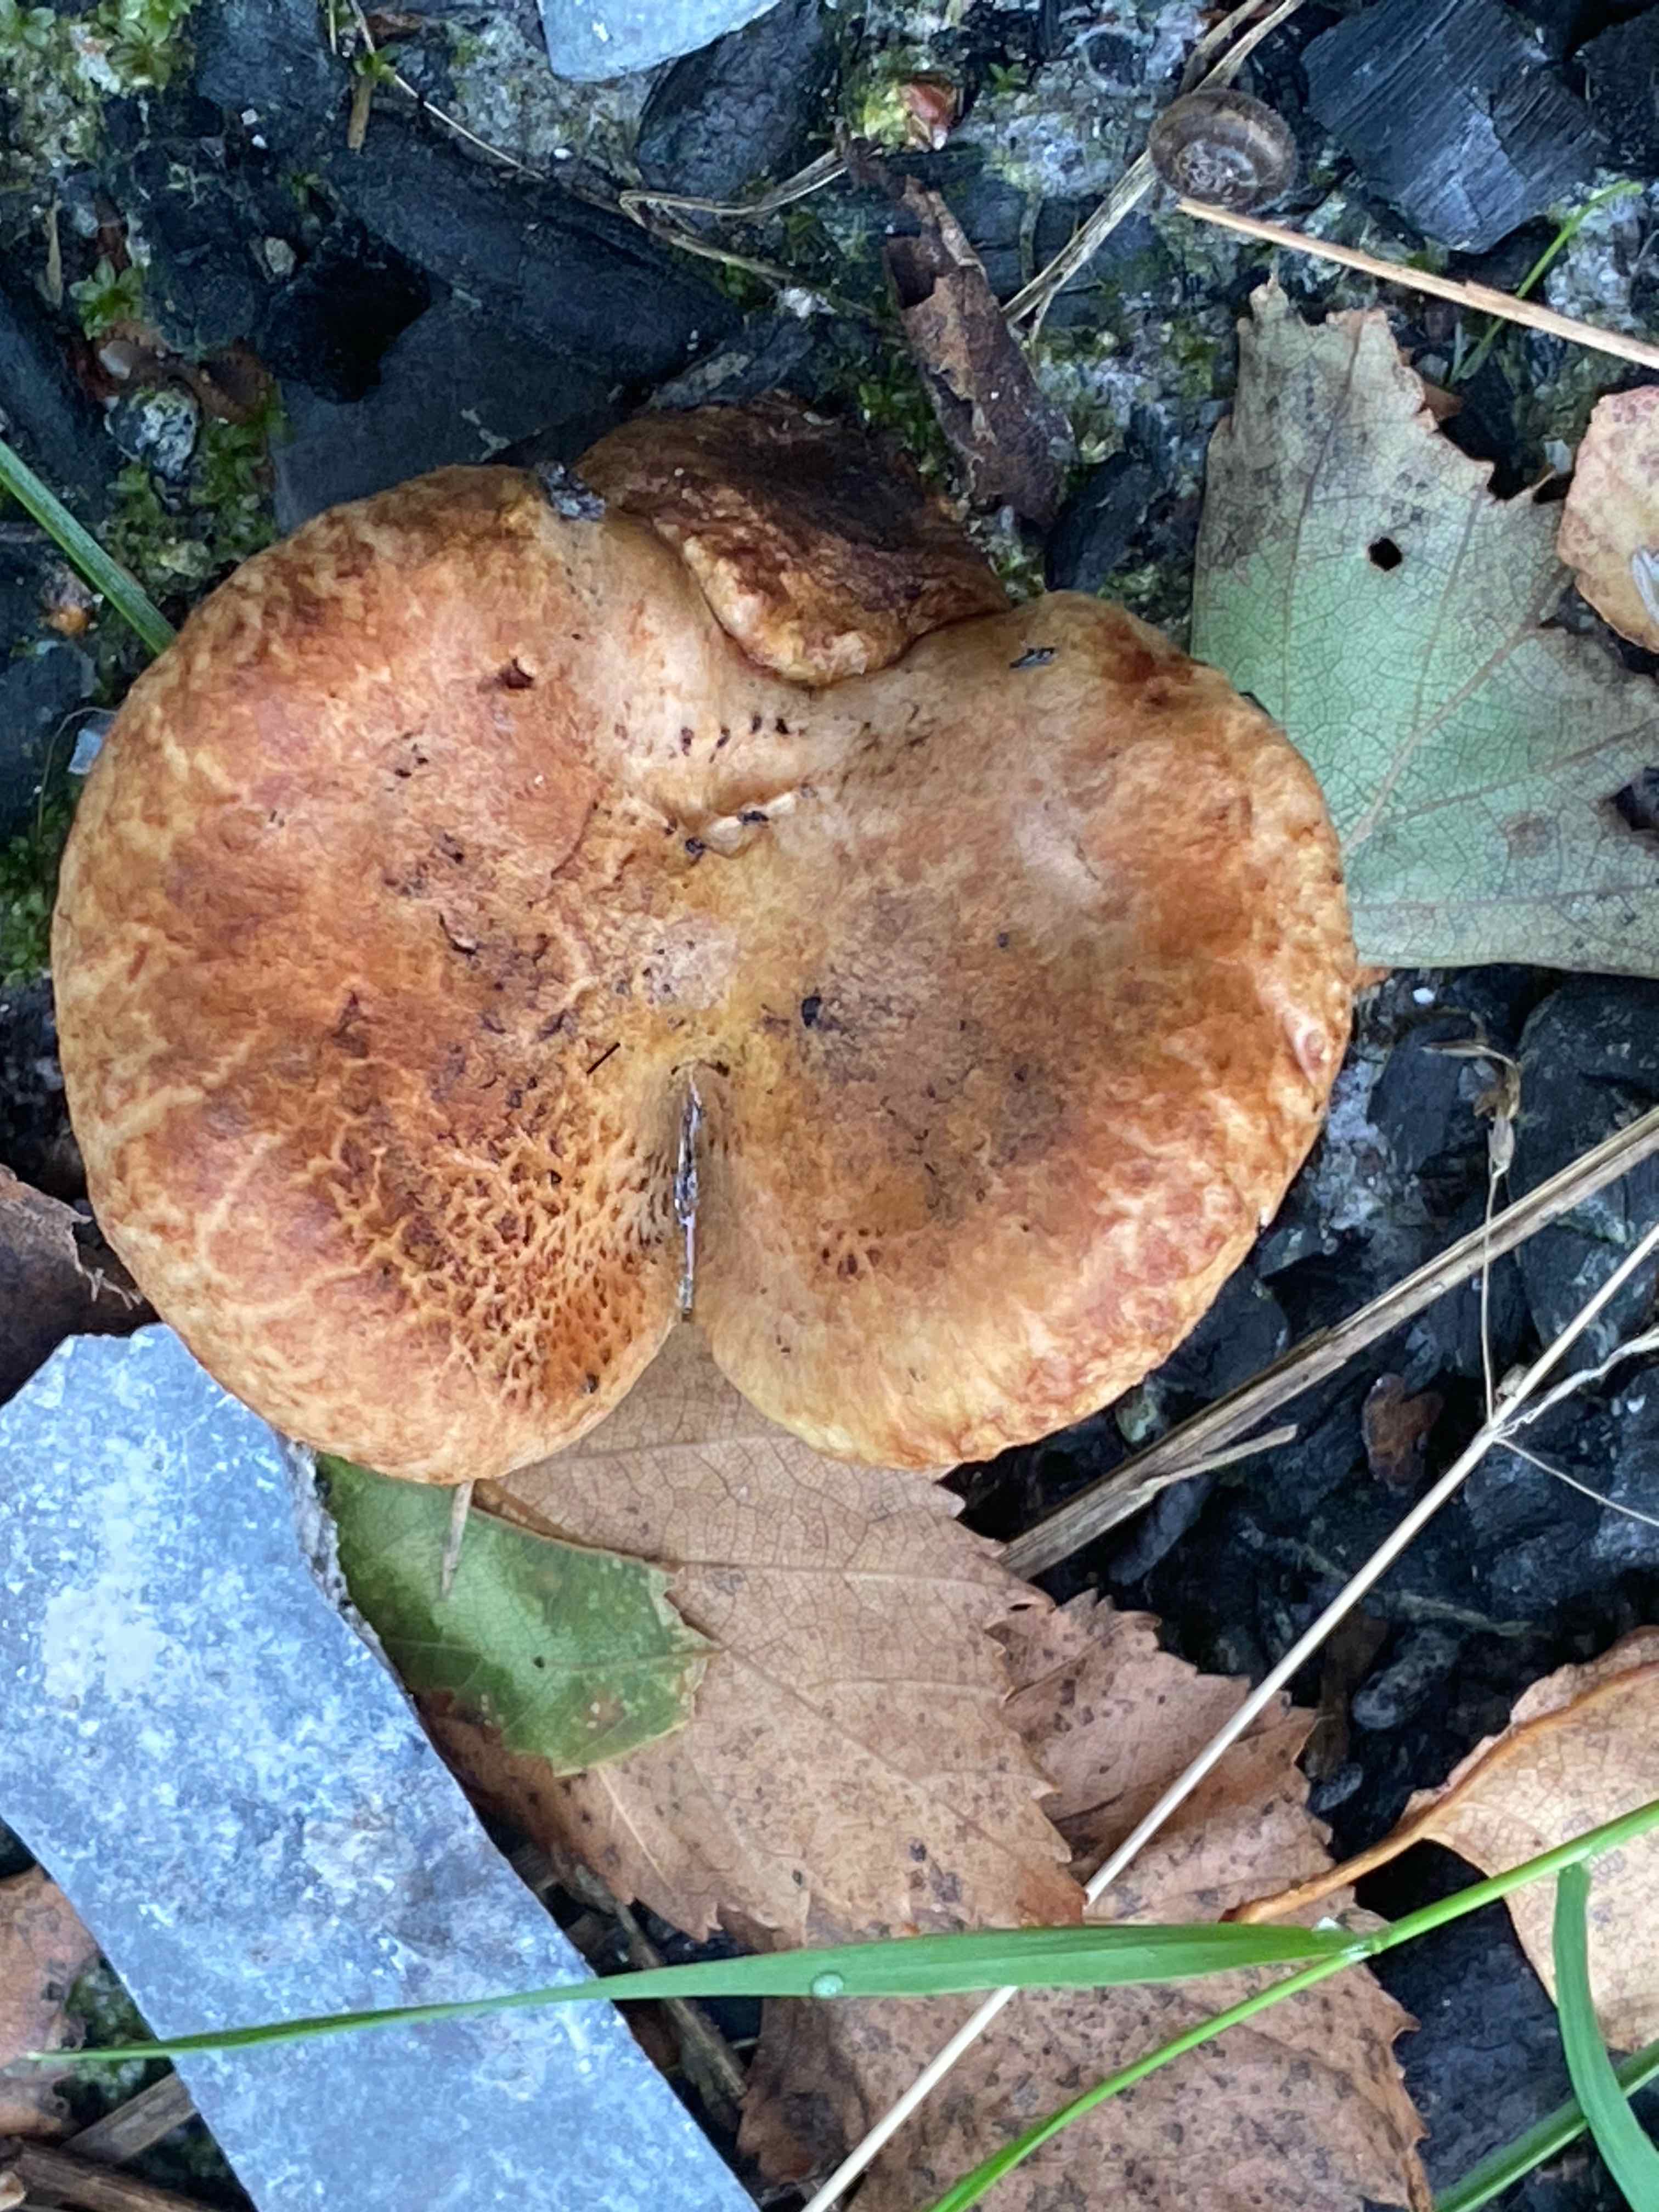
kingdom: Fungi
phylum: Basidiomycota
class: Agaricomycetes
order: Boletales
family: Paxillaceae
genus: Paxillus
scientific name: Paxillus involutus
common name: almindelig netbladhat
